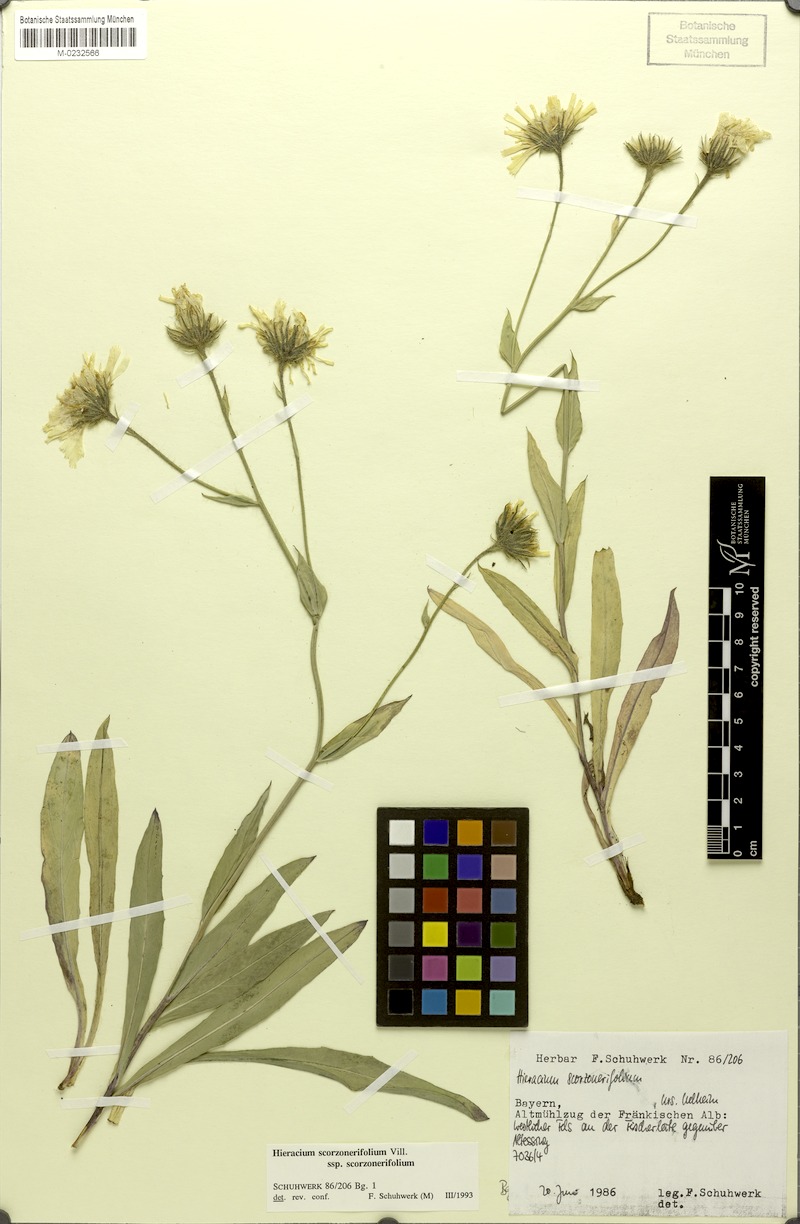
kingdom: Plantae
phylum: Tracheophyta
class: Magnoliopsida
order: Asterales
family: Asteraceae
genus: Hieracium
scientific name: Hieracium scorzonerifolium
